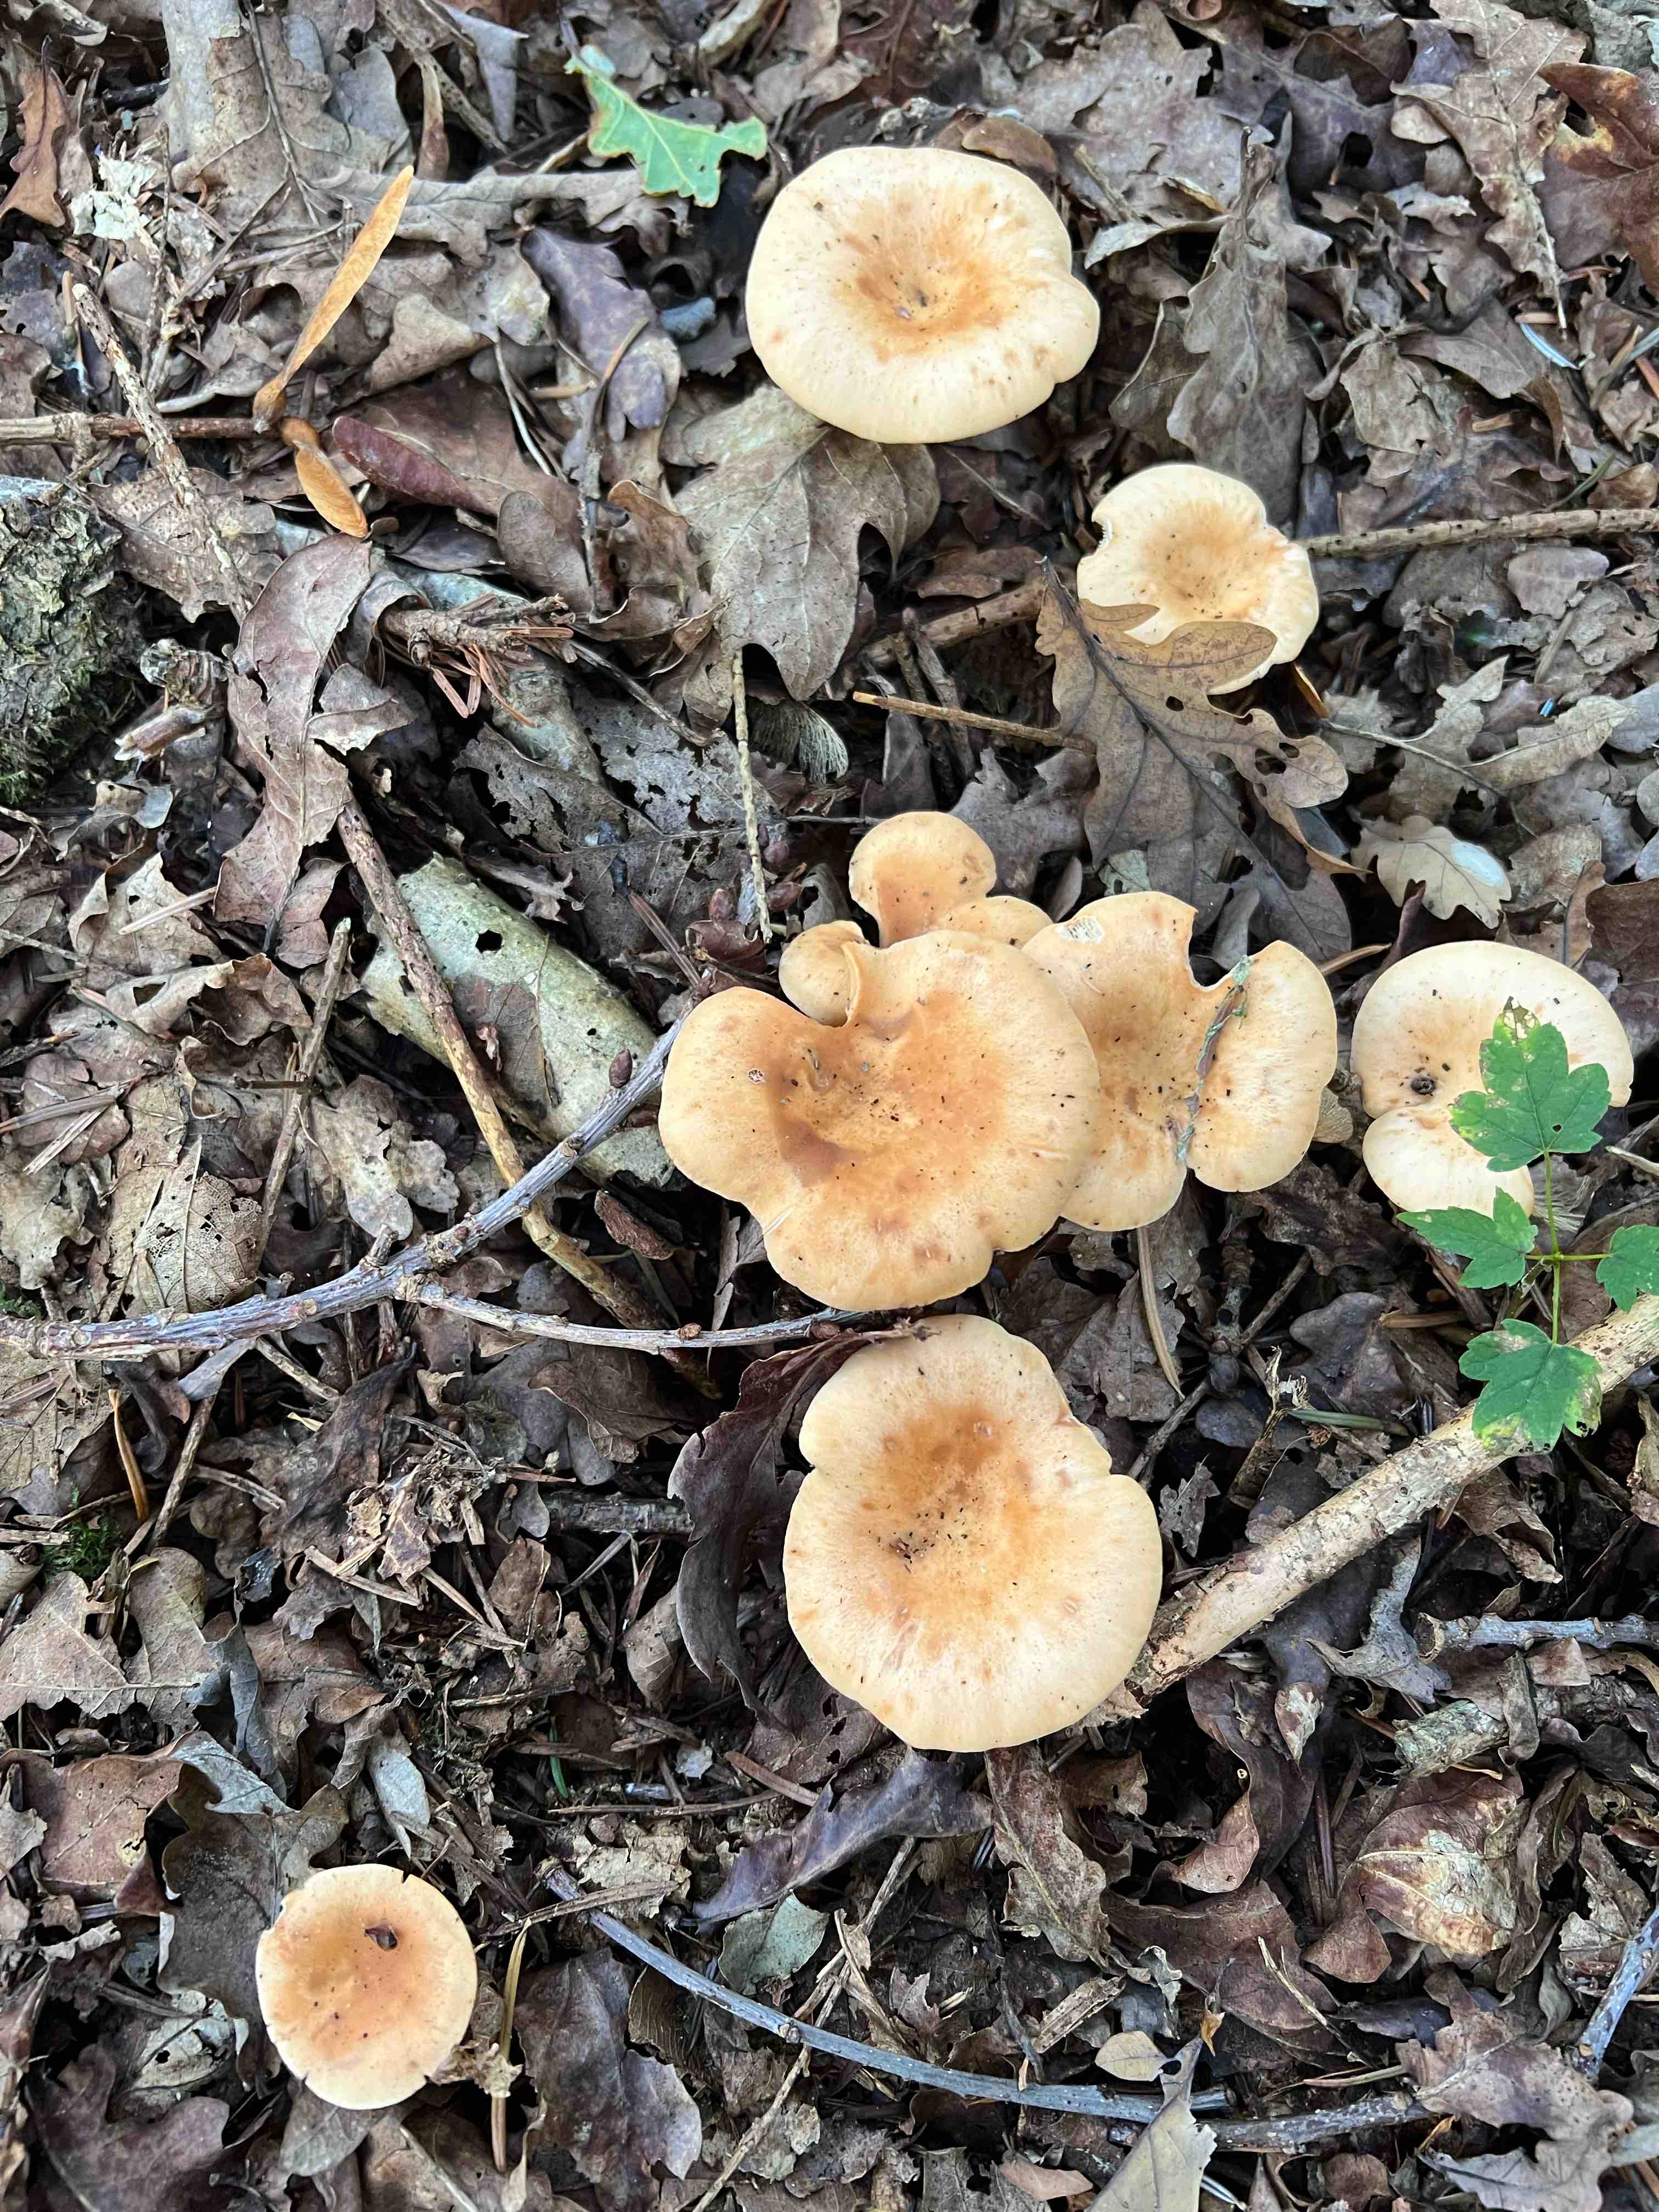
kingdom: Fungi
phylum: Basidiomycota
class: Agaricomycetes
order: Agaricales
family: Tricholomataceae
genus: Paralepista
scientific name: Paralepista
